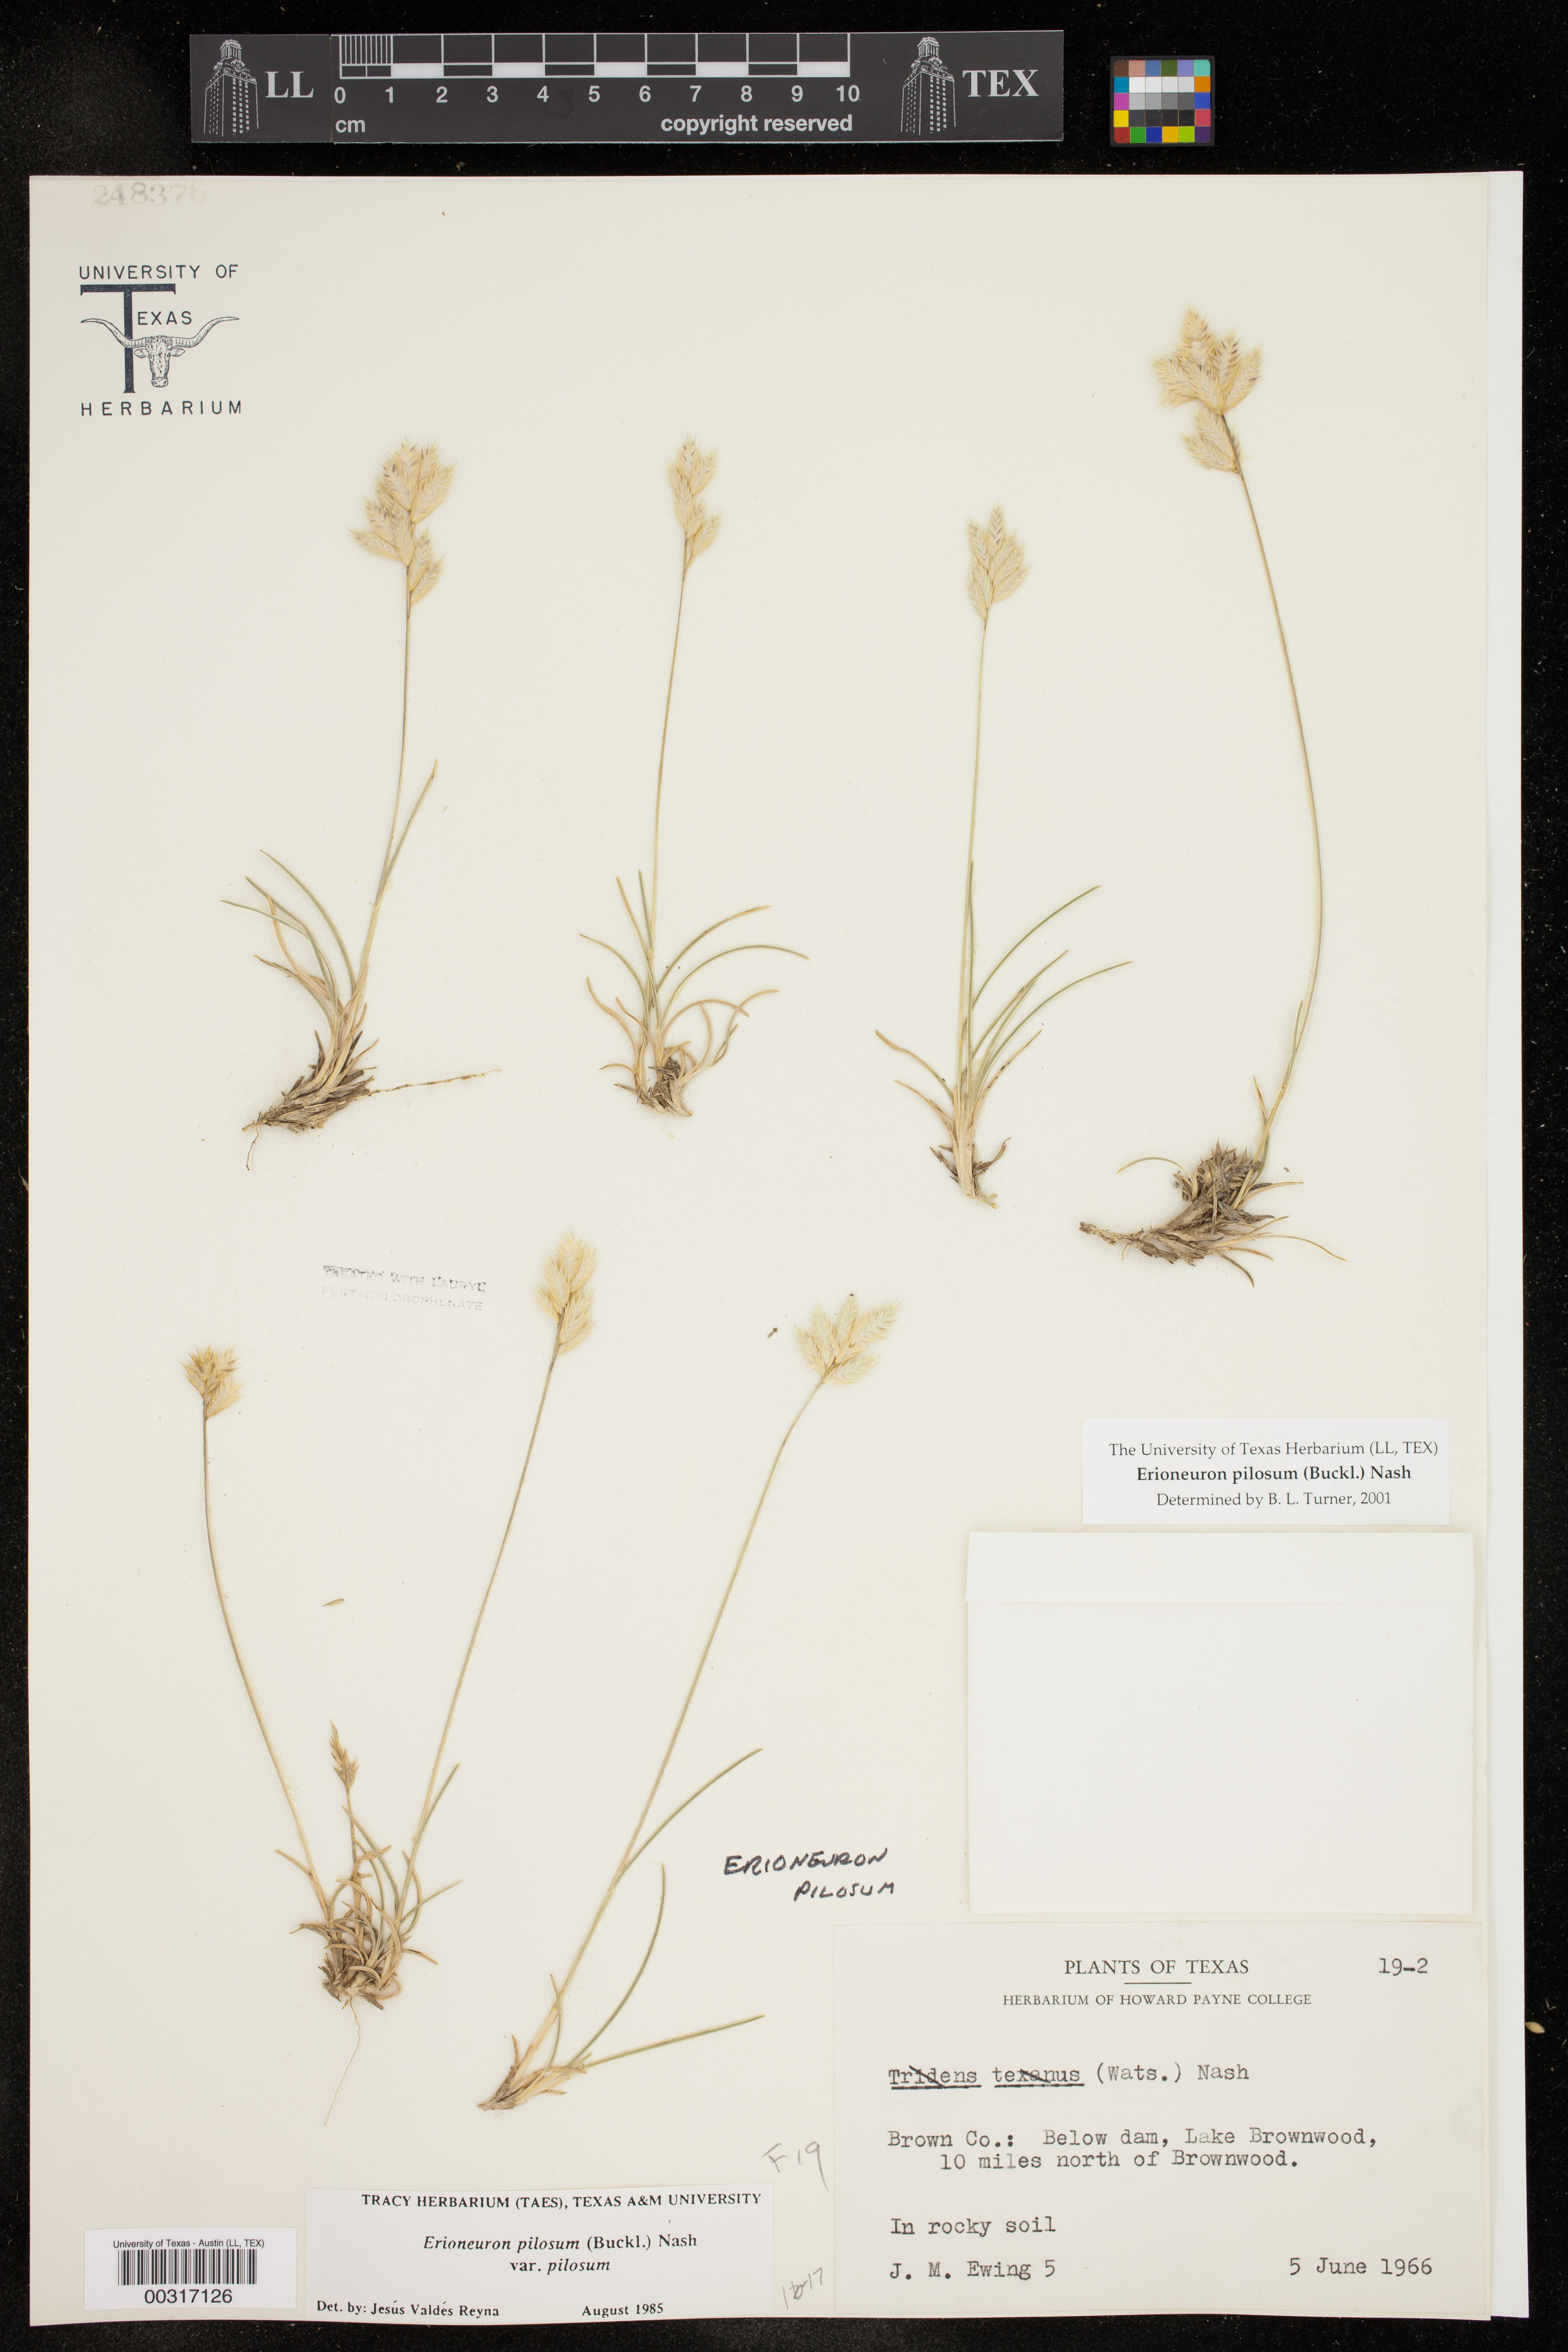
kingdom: Plantae
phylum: Tracheophyta
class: Liliopsida
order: Poales
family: Poaceae
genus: Erioneuron
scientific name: Erioneuron pilosum
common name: Hairy woolly grass
